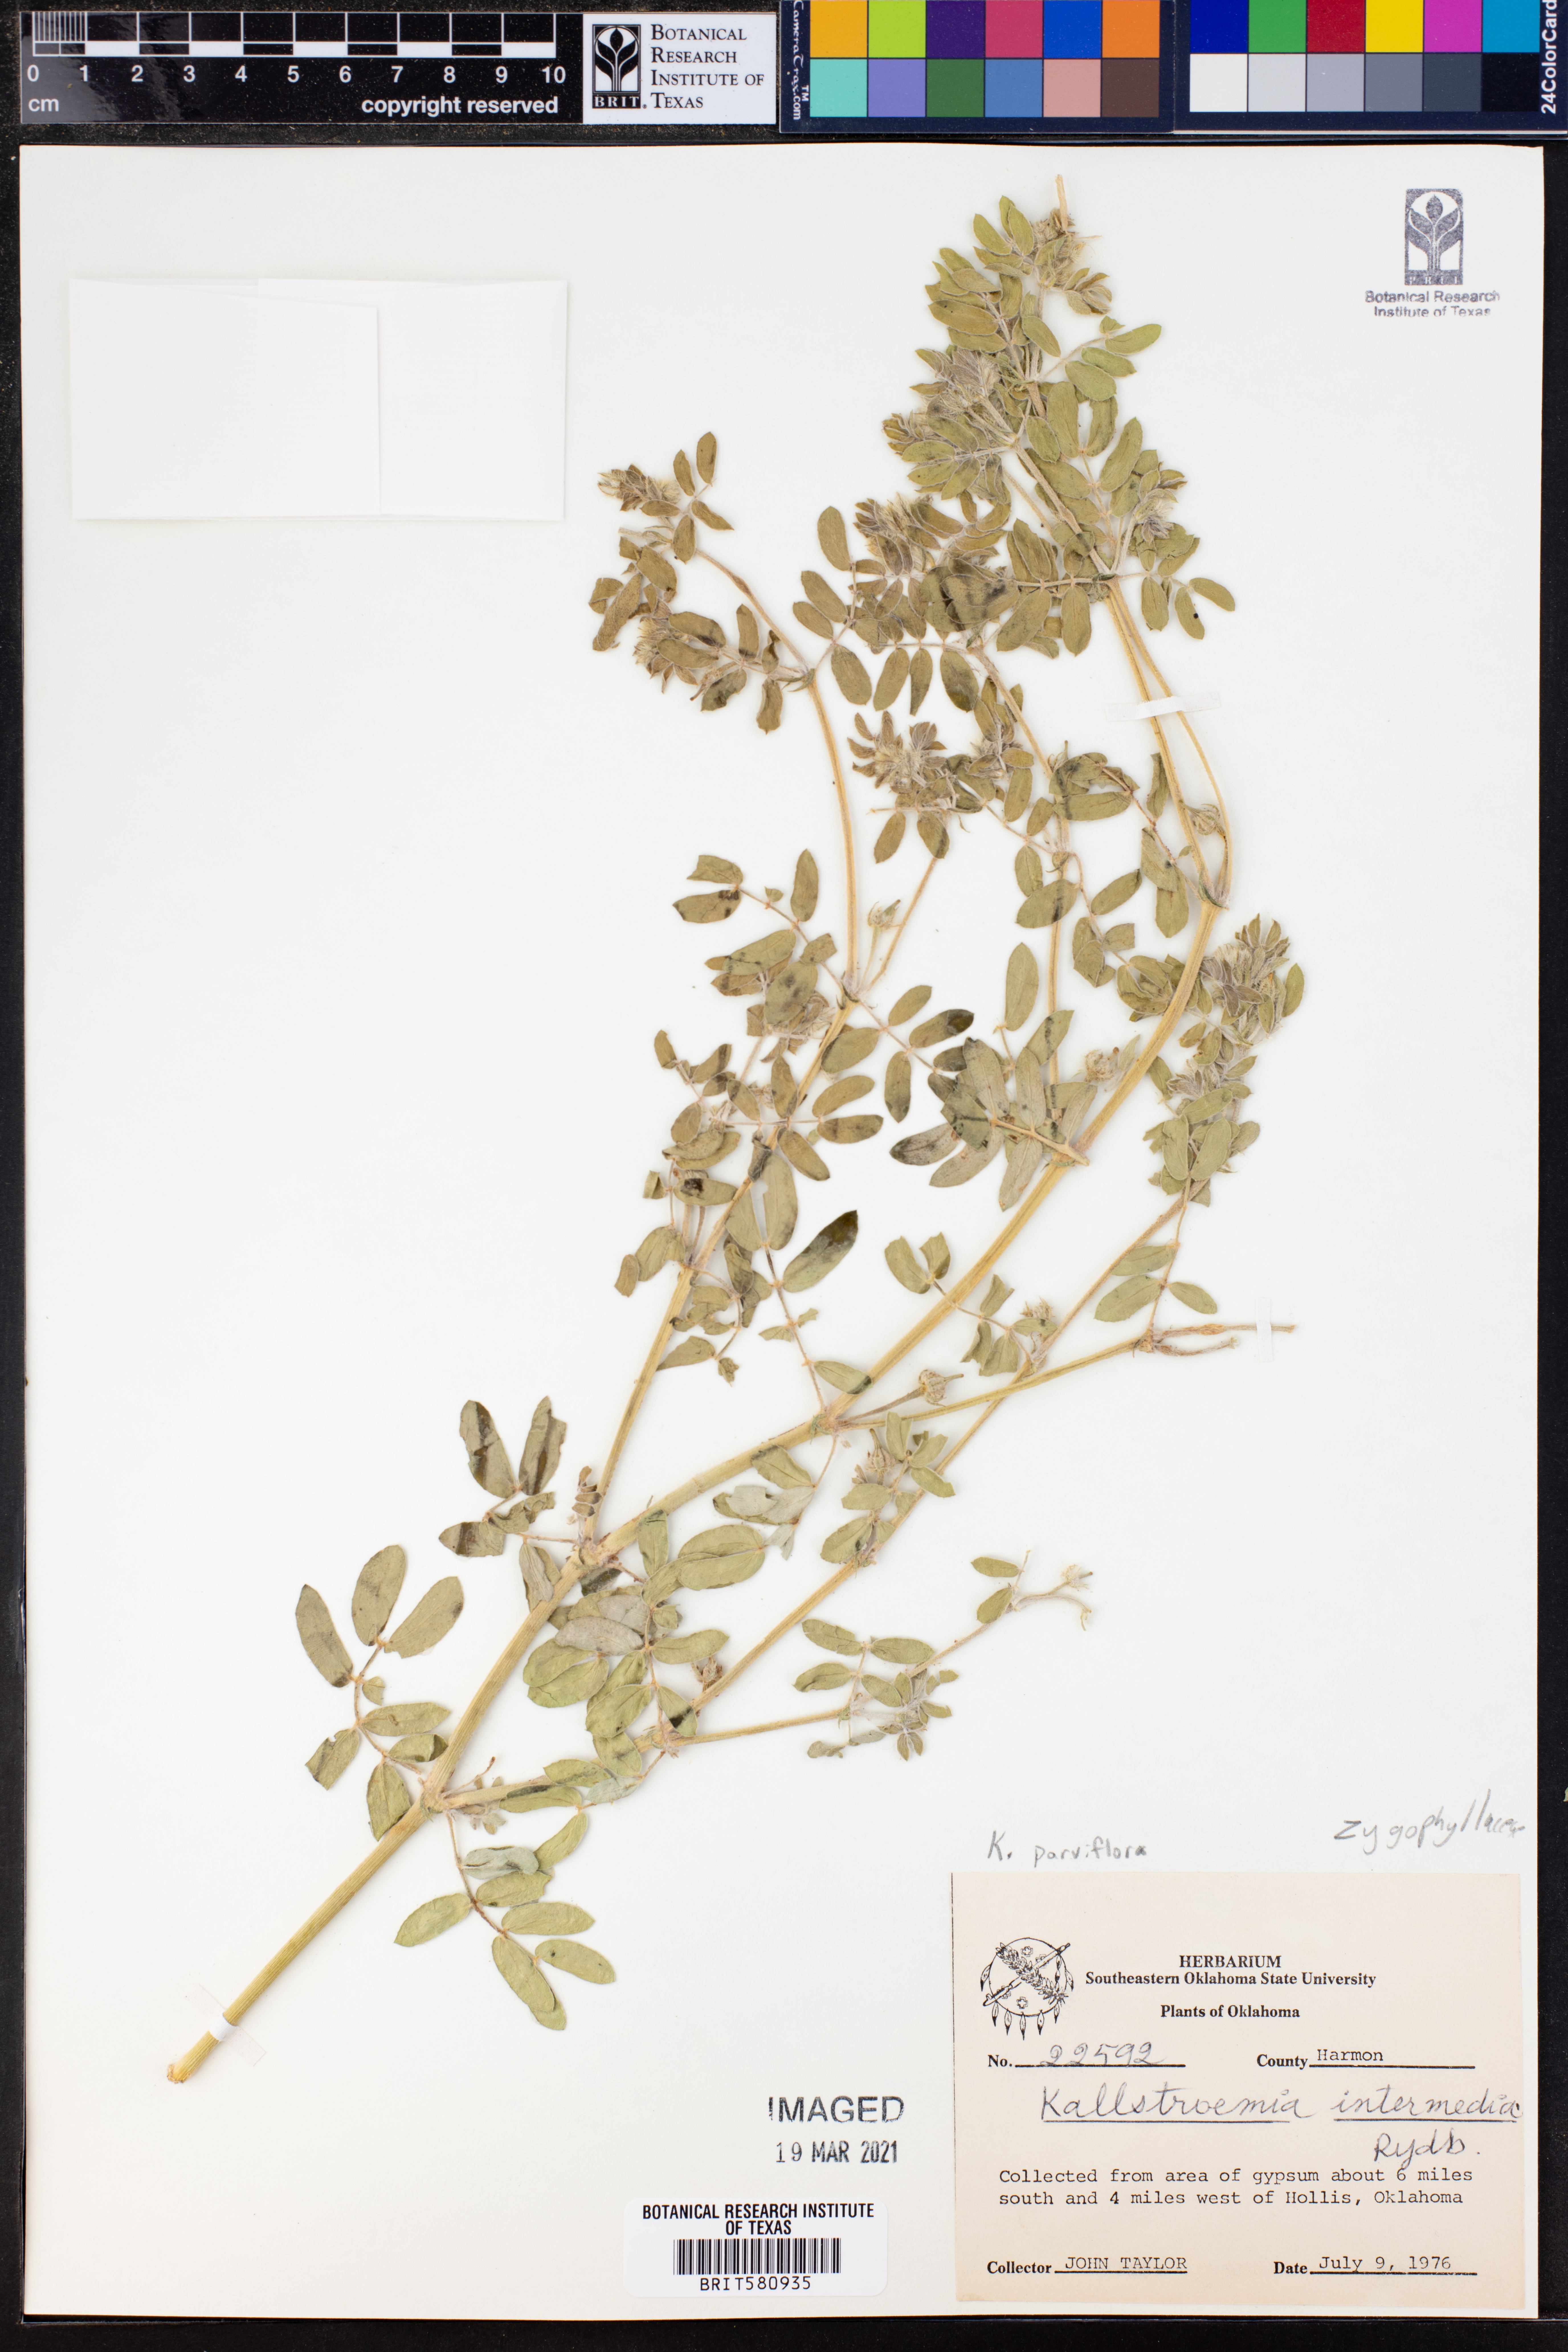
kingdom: Plantae
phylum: Tracheophyta
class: Magnoliopsida
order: Zygophyllales
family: Zygophyllaceae
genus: Kallstroemia
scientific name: Kallstroemia parviflora
